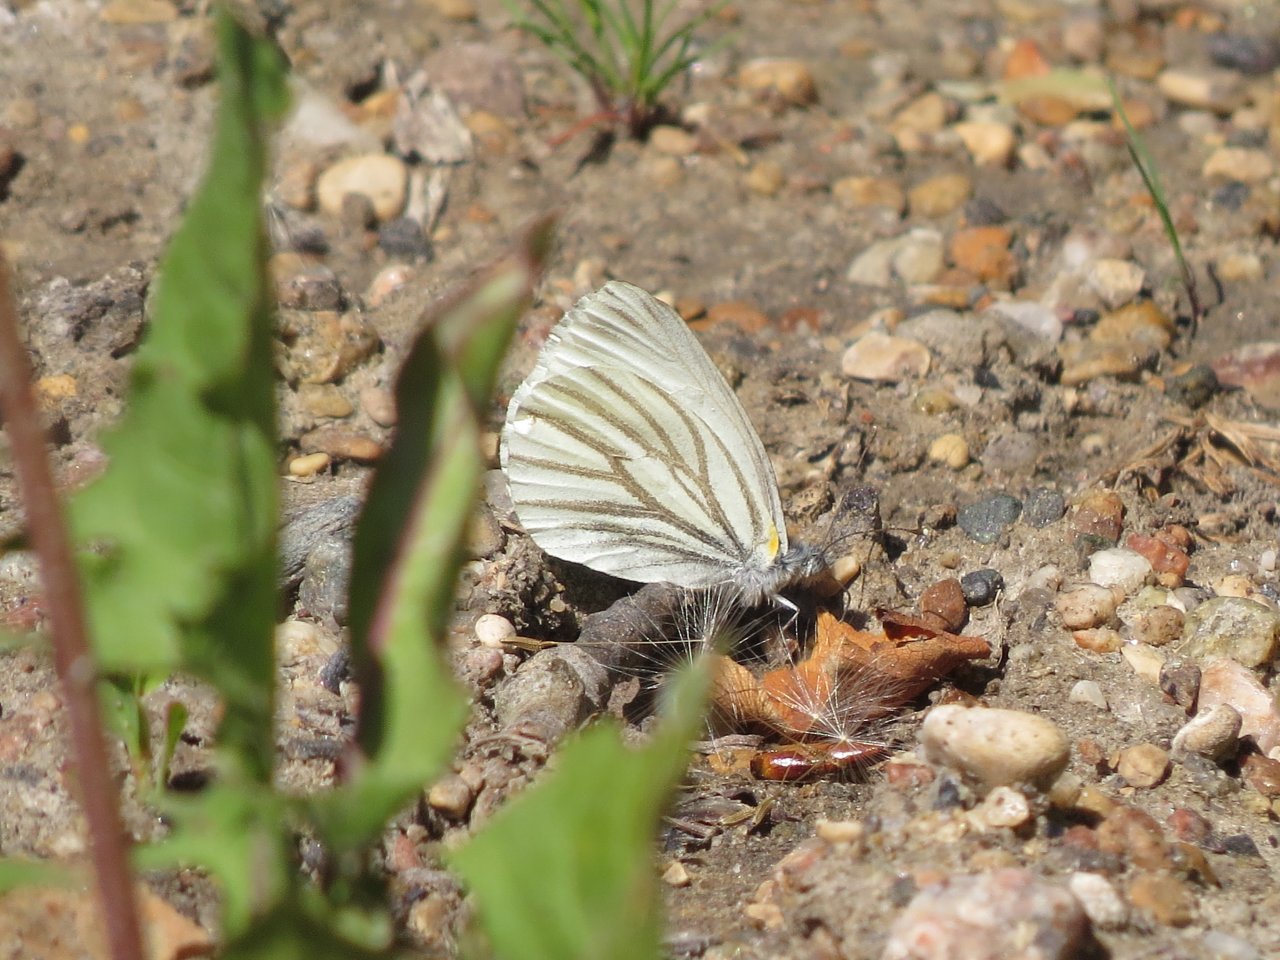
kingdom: Animalia
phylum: Arthropoda
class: Insecta
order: Lepidoptera
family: Pieridae
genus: Pieris
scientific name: Pieris oleracea
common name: Mustard White
